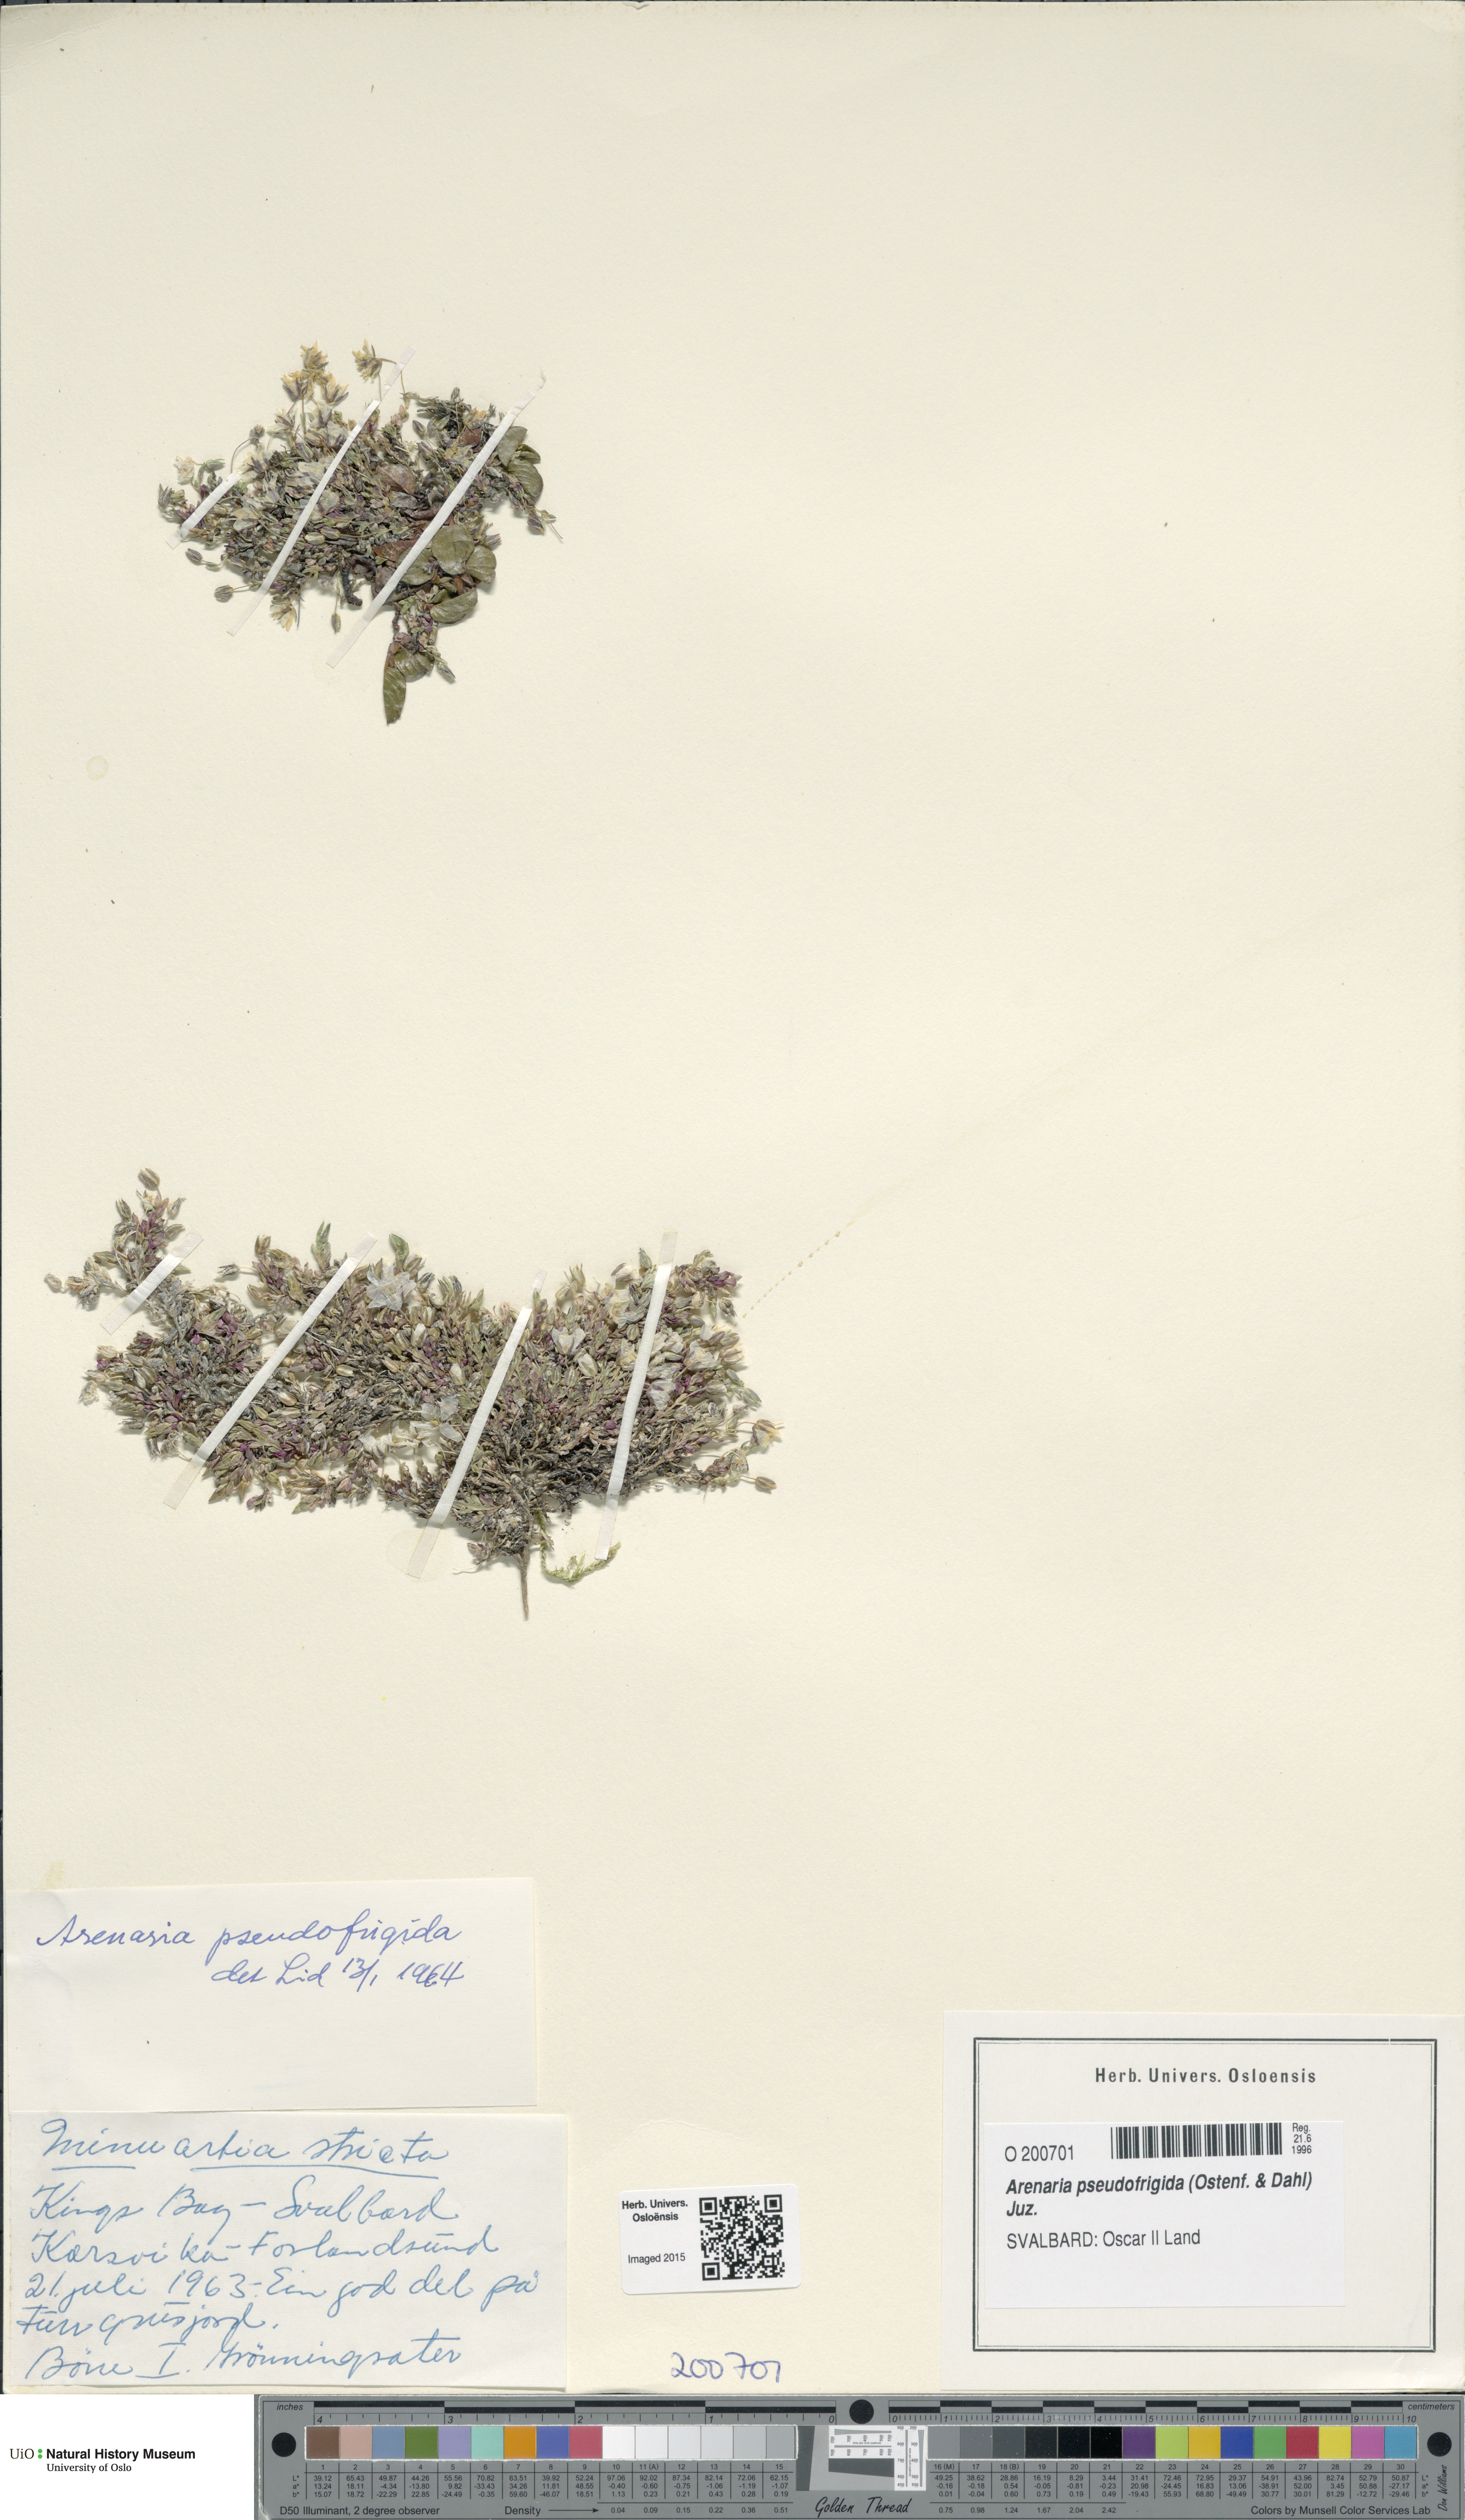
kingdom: Plantae
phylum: Tracheophyta
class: Magnoliopsida
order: Caryophyllales
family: Caryophyllaceae
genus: Arenaria
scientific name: Arenaria pseudofrigida
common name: Tundra sandwort
